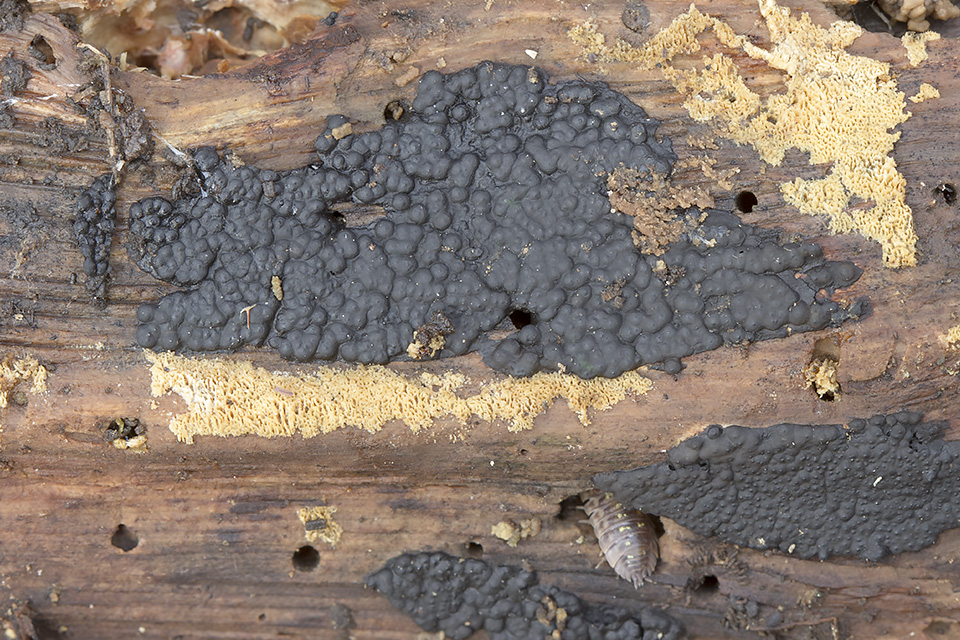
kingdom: Fungi
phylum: Ascomycota
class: Sordariomycetes
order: Xylariales
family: Xylariaceae
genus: Nemania
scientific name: Nemania serpens
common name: almindelig kuldyne
